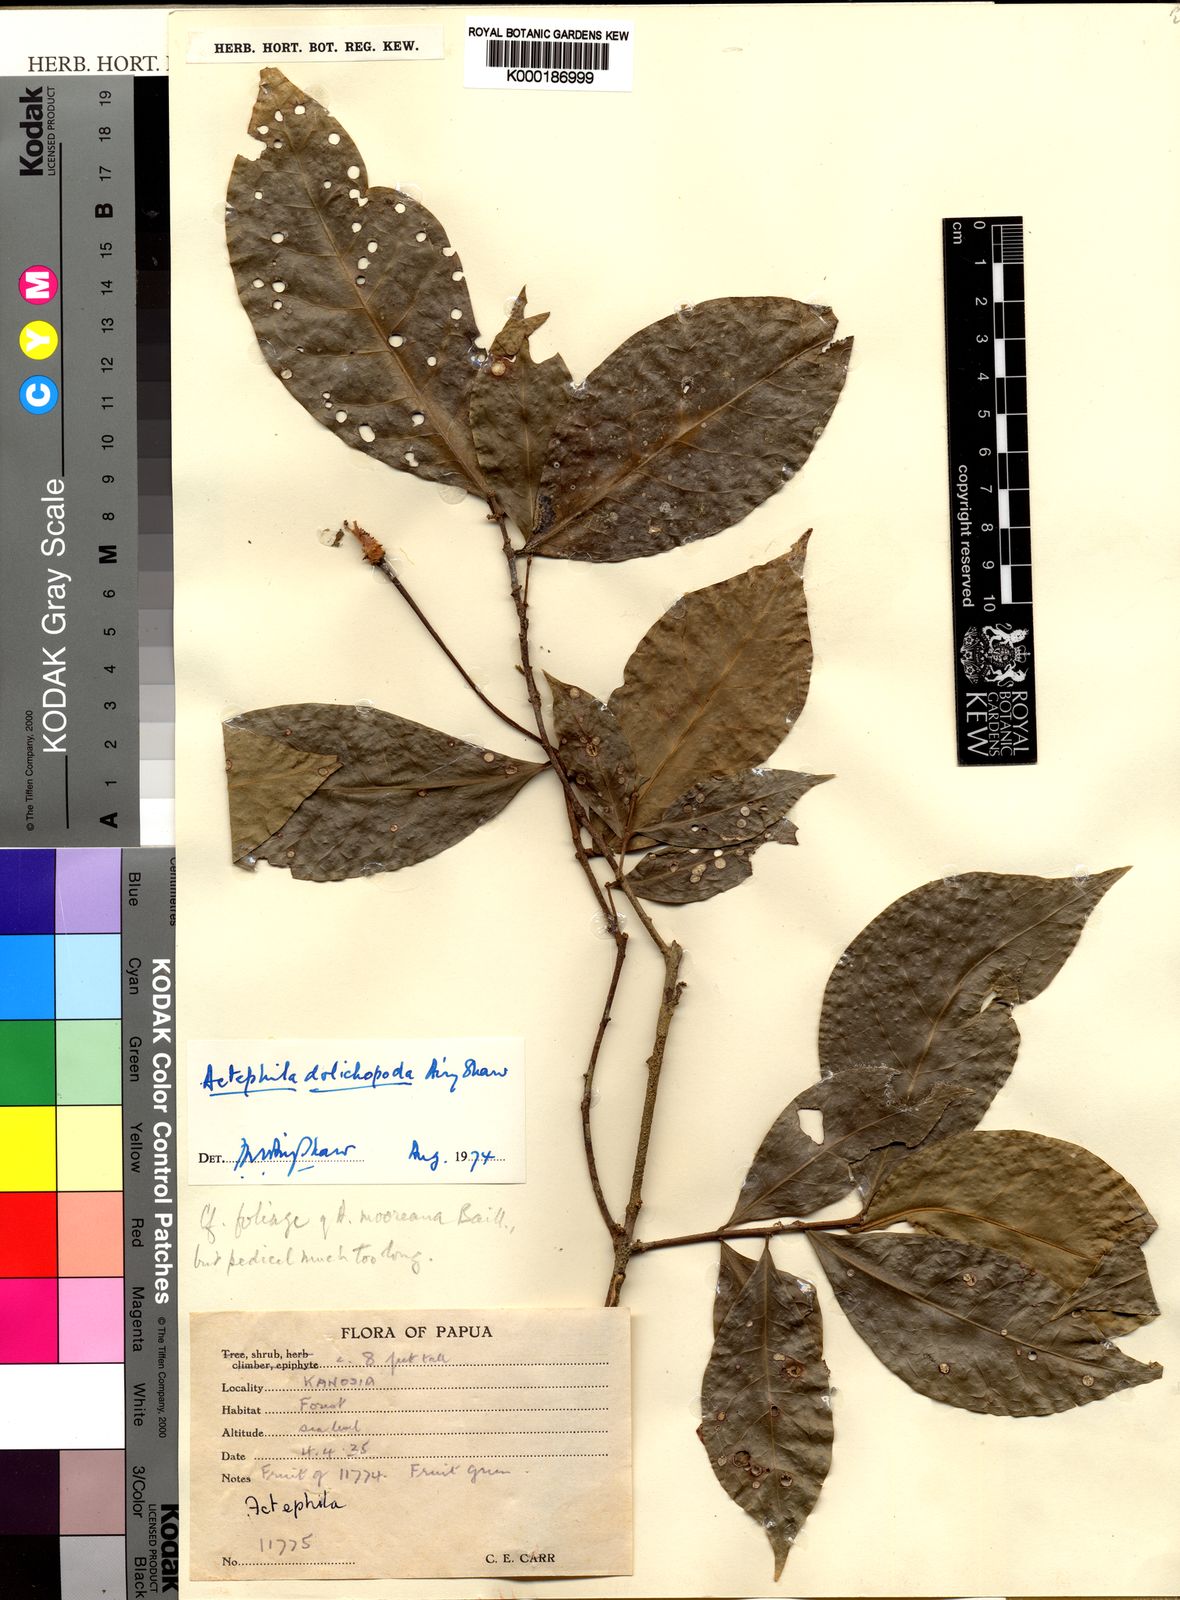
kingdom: Plantae
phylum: Tracheophyta
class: Magnoliopsida
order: Malpighiales
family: Phyllanthaceae
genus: Actephila
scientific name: Actephila dolichopoda
